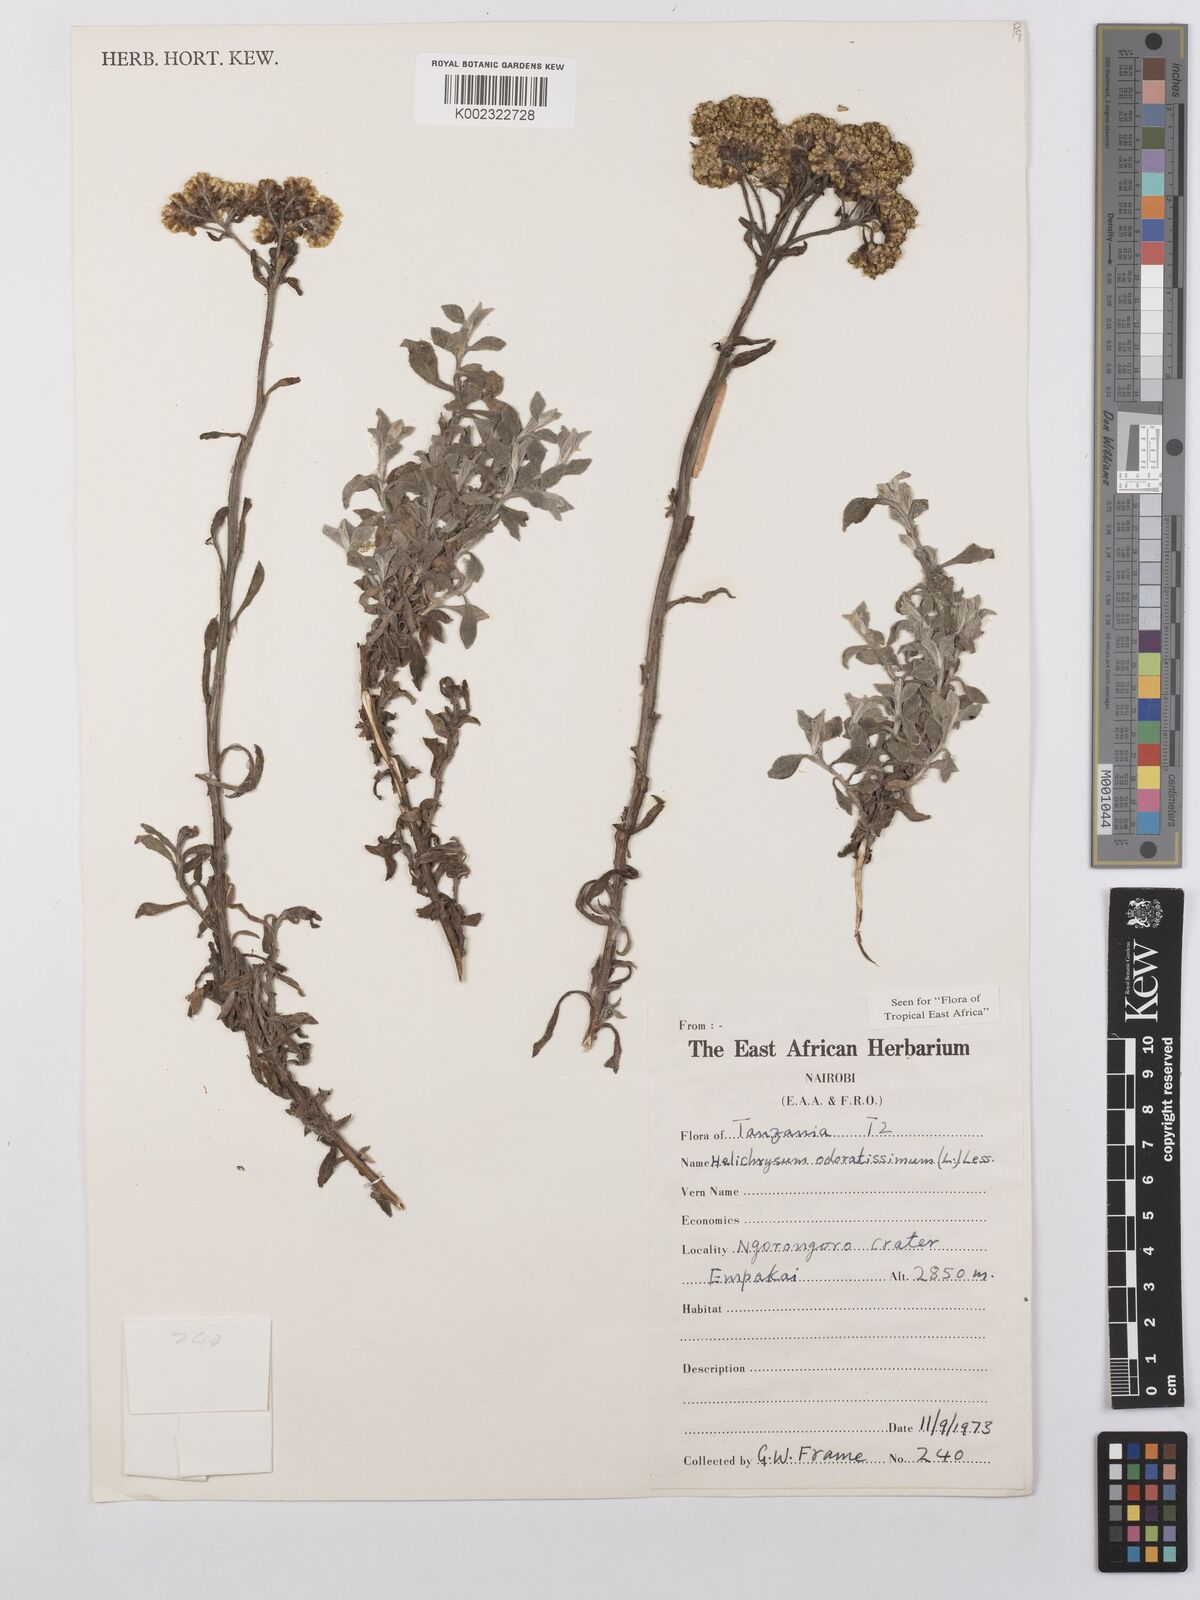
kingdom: Plantae
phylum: Tracheophyta
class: Magnoliopsida
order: Asterales
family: Asteraceae
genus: Helichrysum
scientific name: Helichrysum odoratissimum
